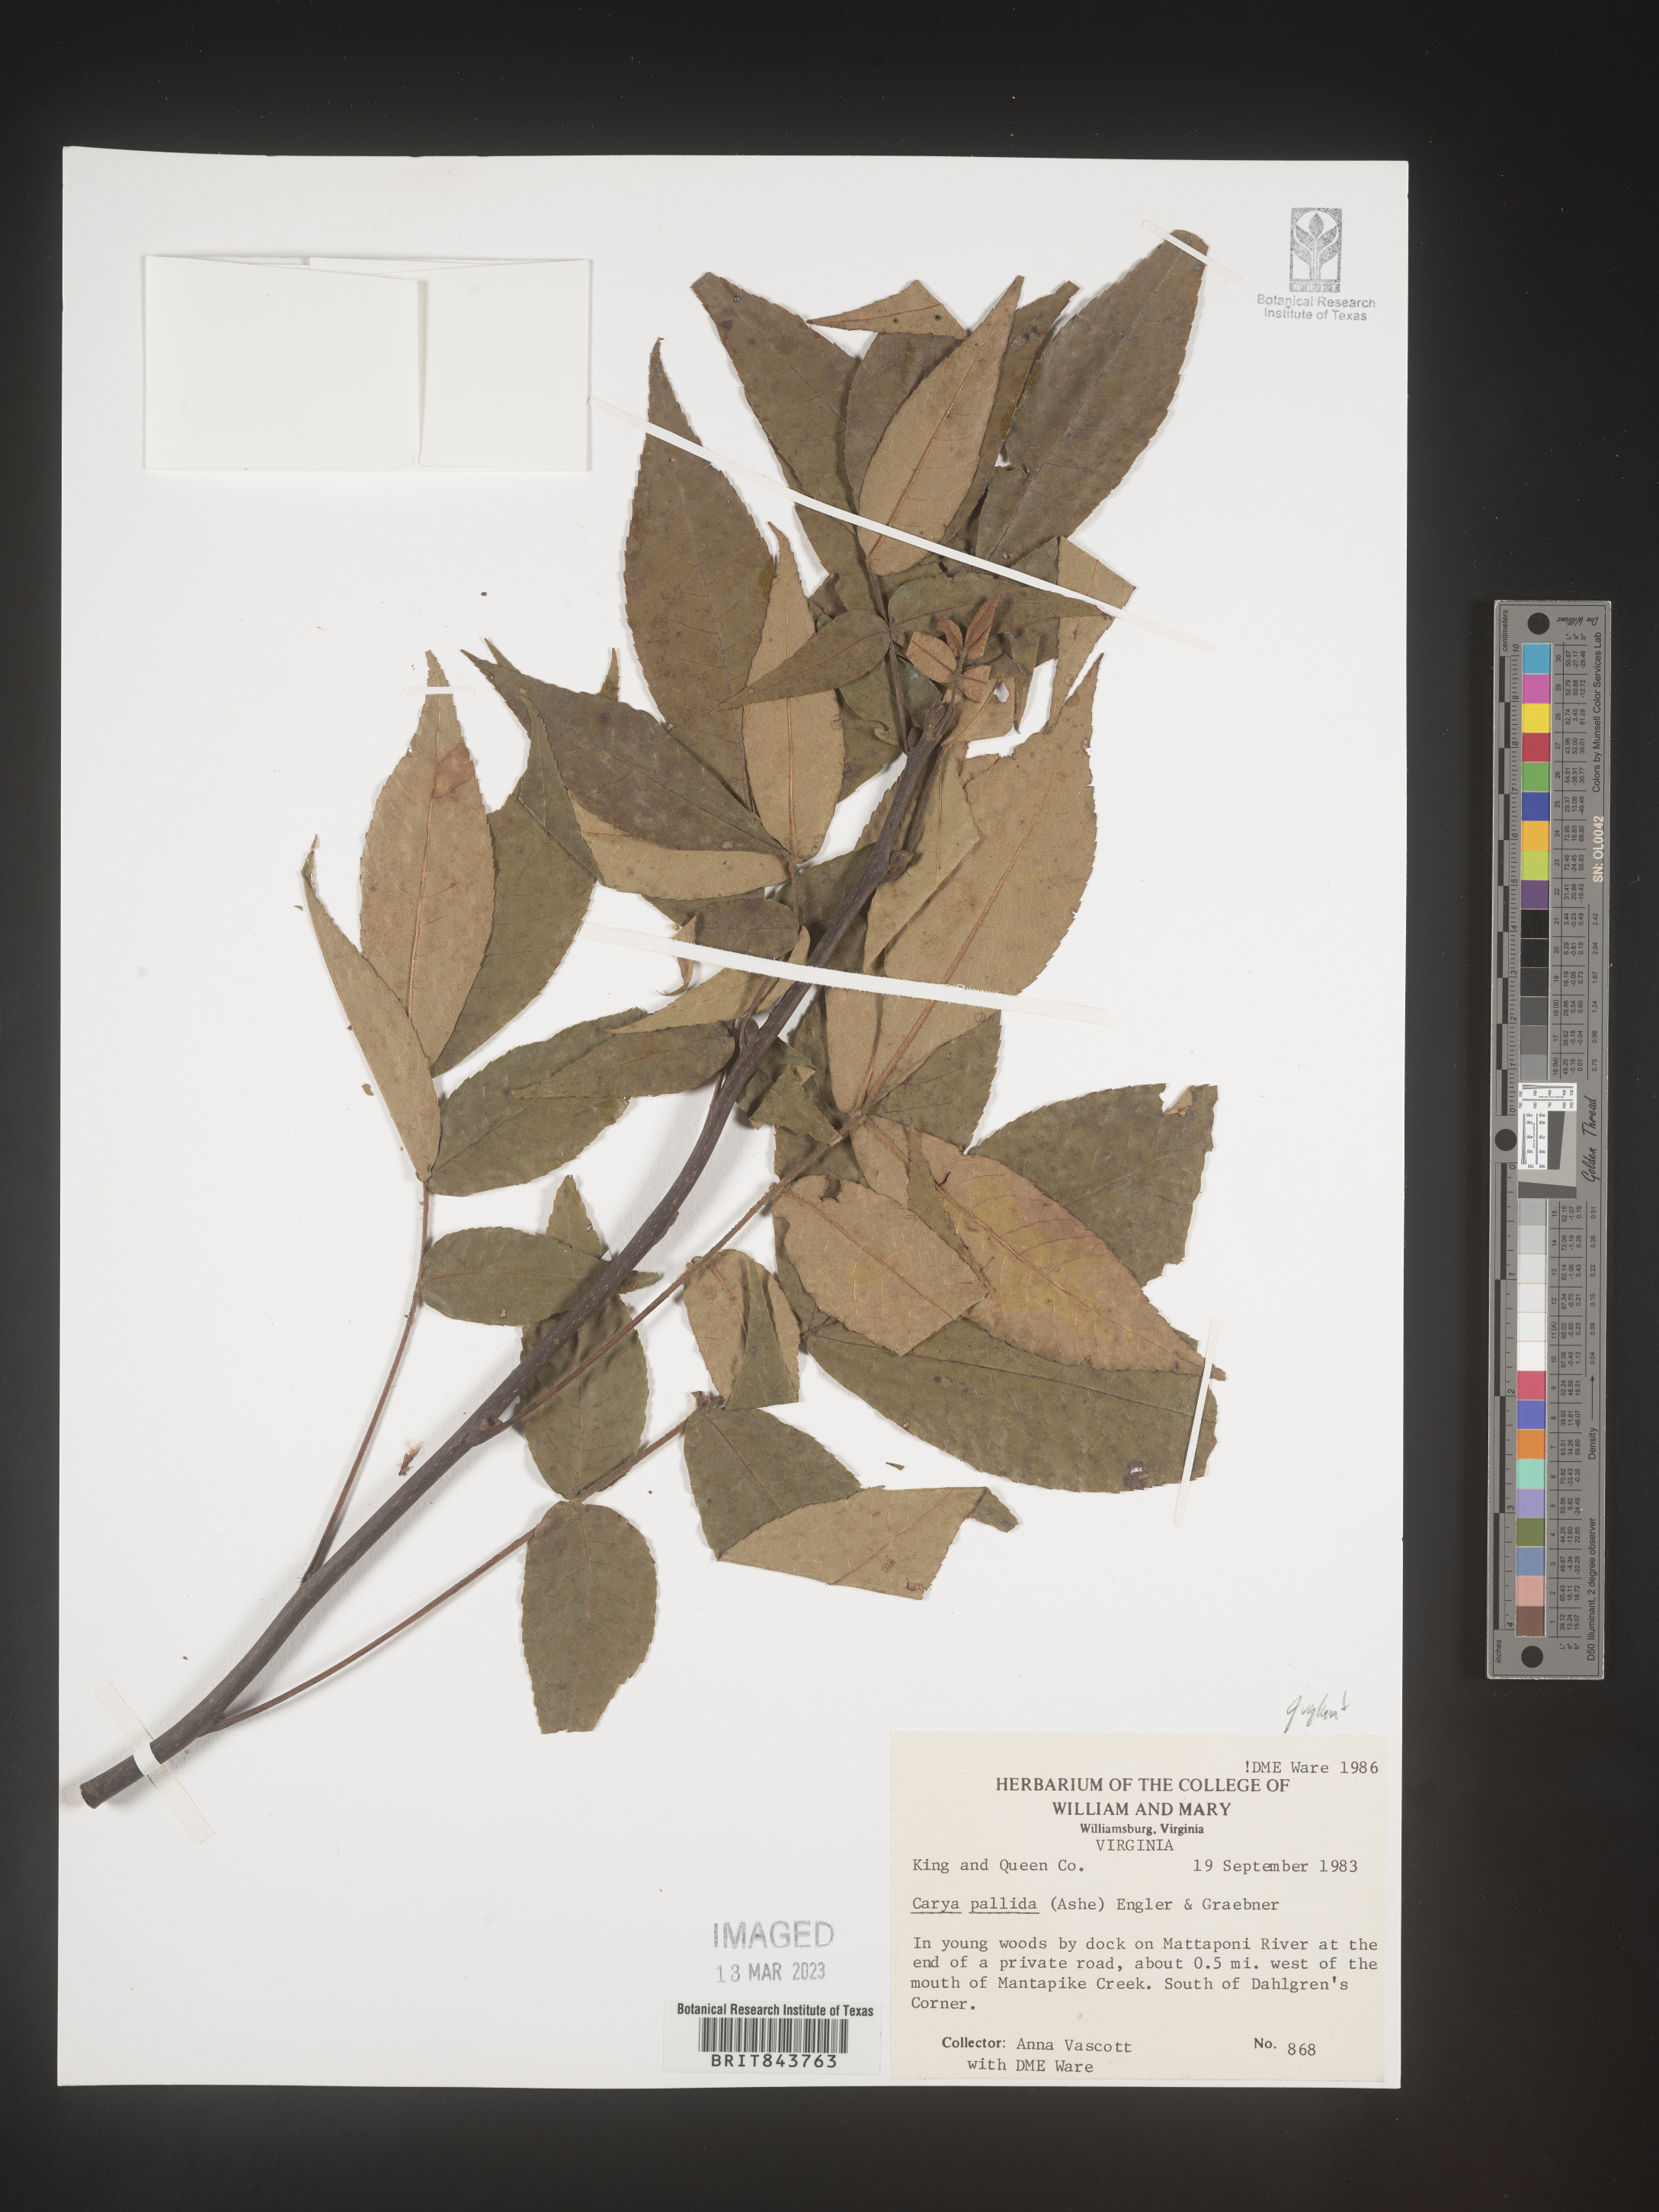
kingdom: Plantae
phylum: Tracheophyta
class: Magnoliopsida
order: Fagales
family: Juglandaceae
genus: Carya
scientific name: Carya pallida
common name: Sand hickory
